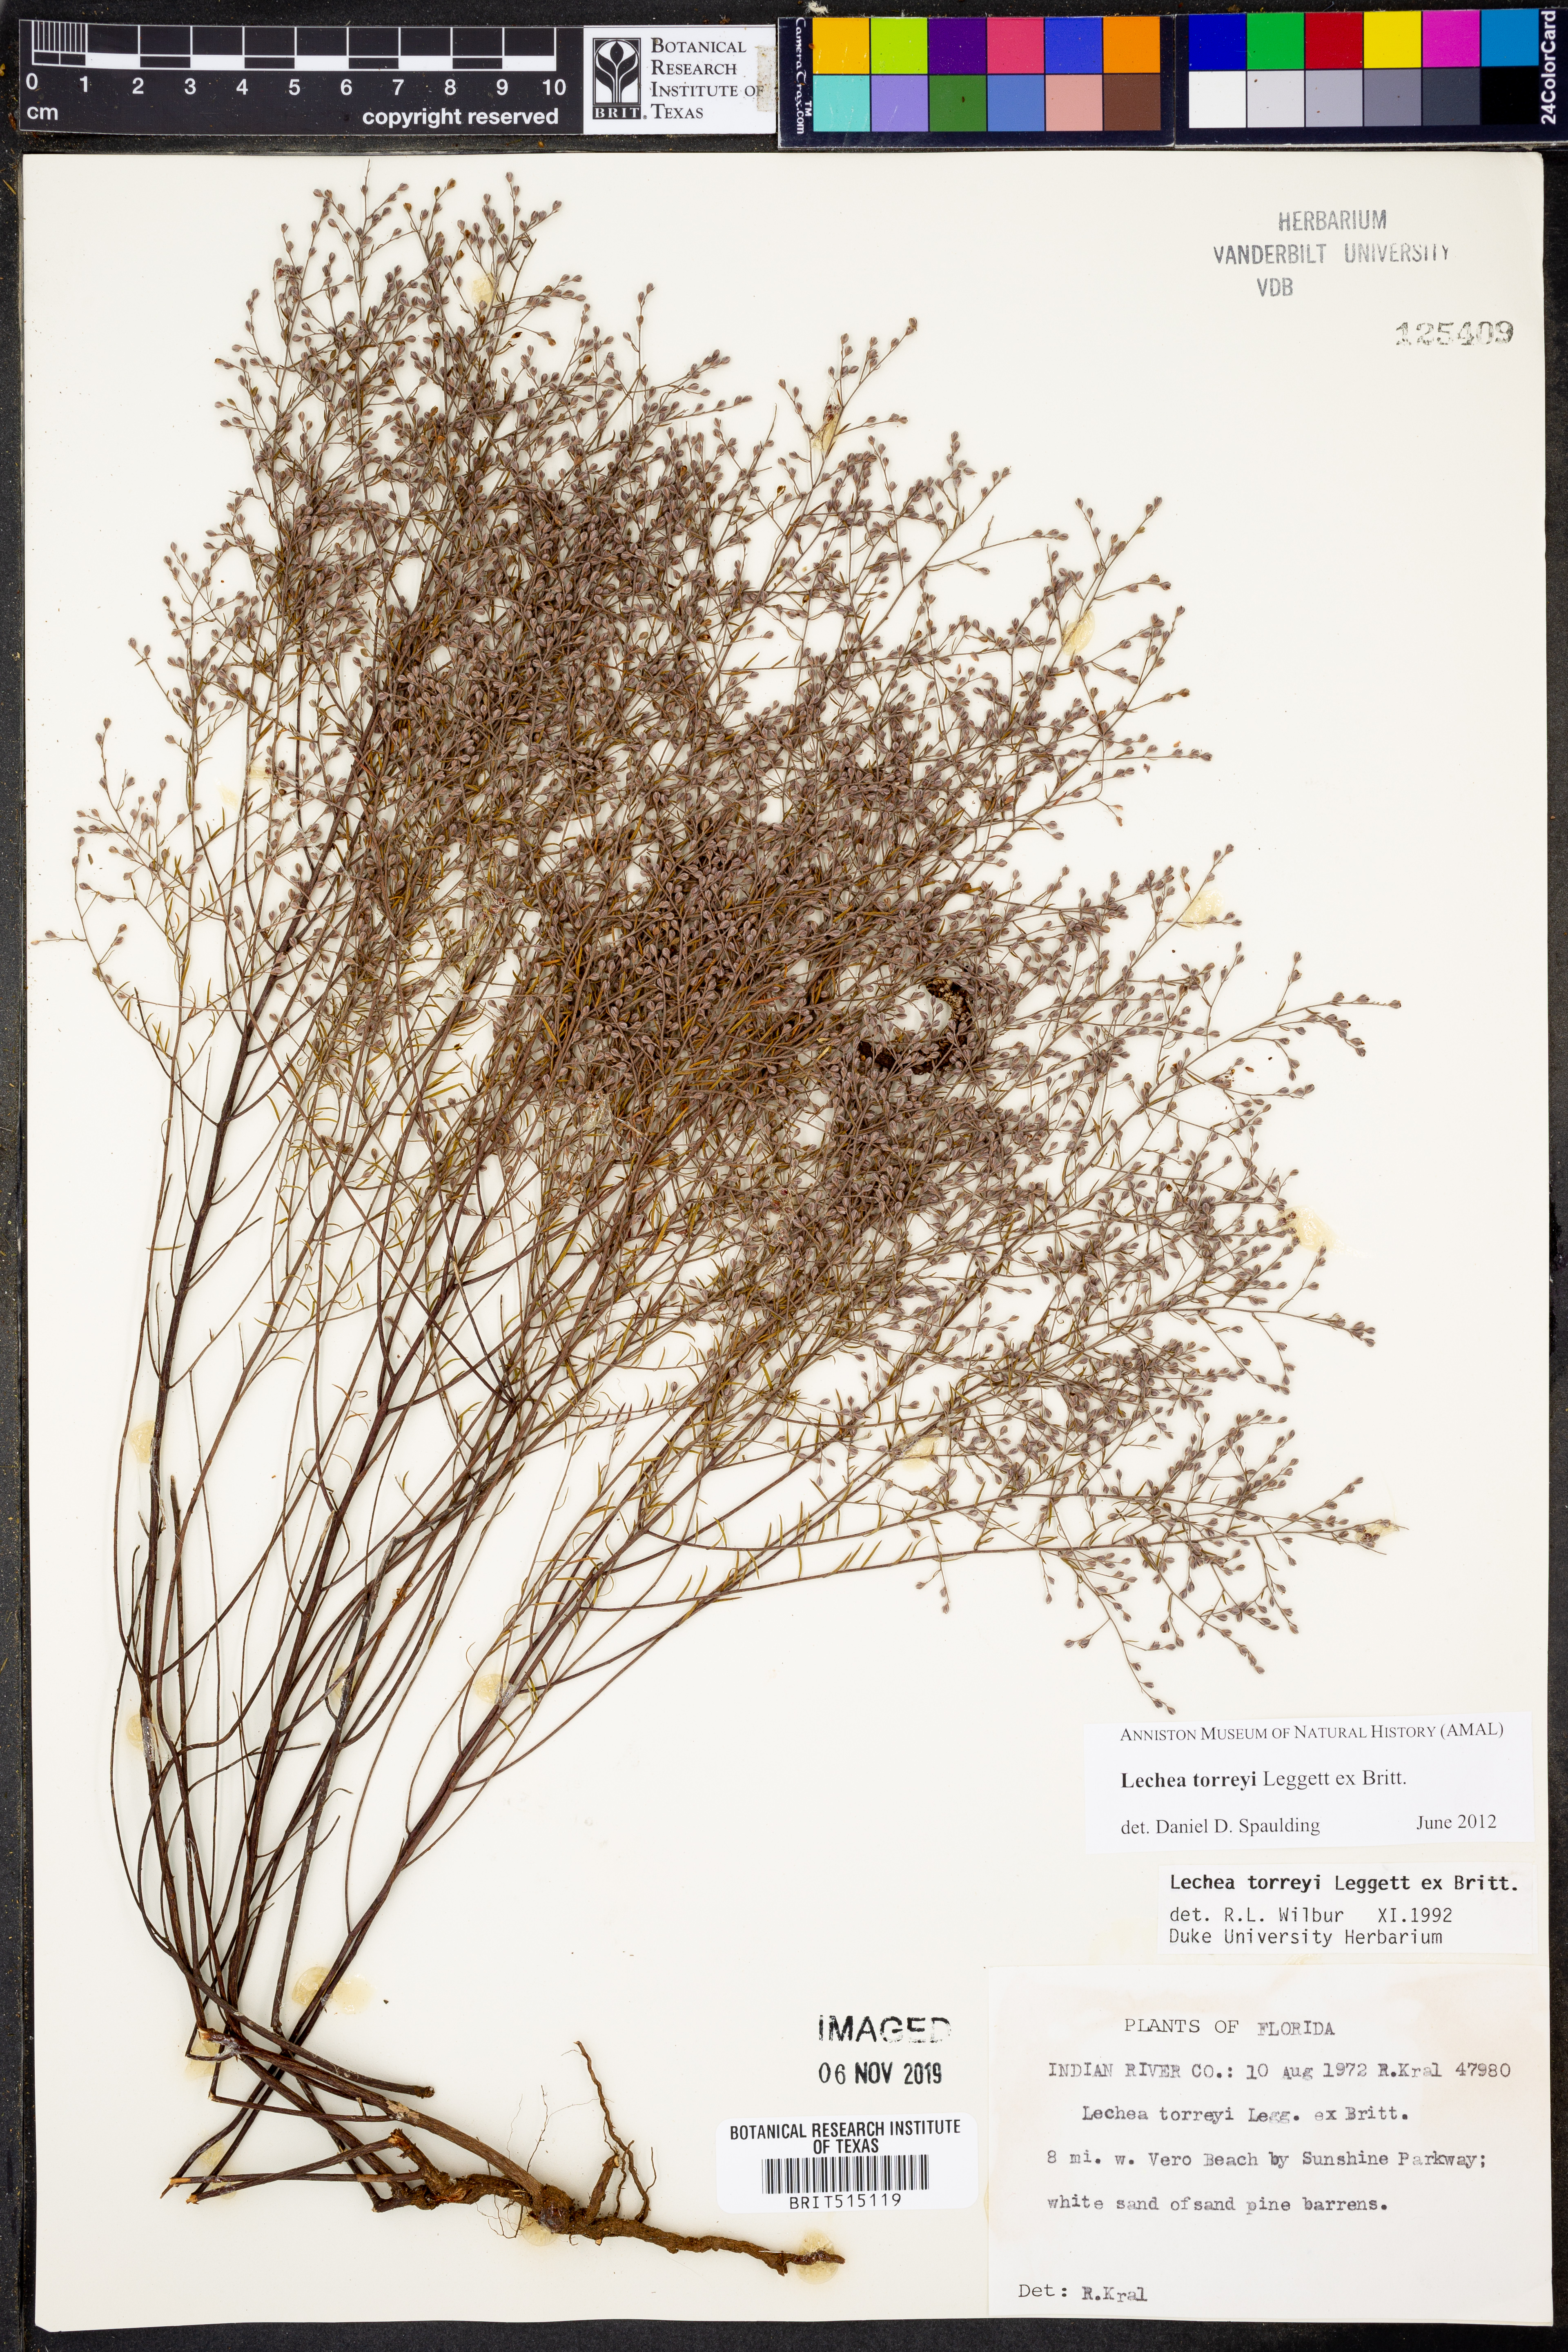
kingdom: Plantae
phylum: Tracheophyta
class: Magnoliopsida
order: Malvales
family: Cistaceae
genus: Lechea
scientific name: Lechea torreyi
